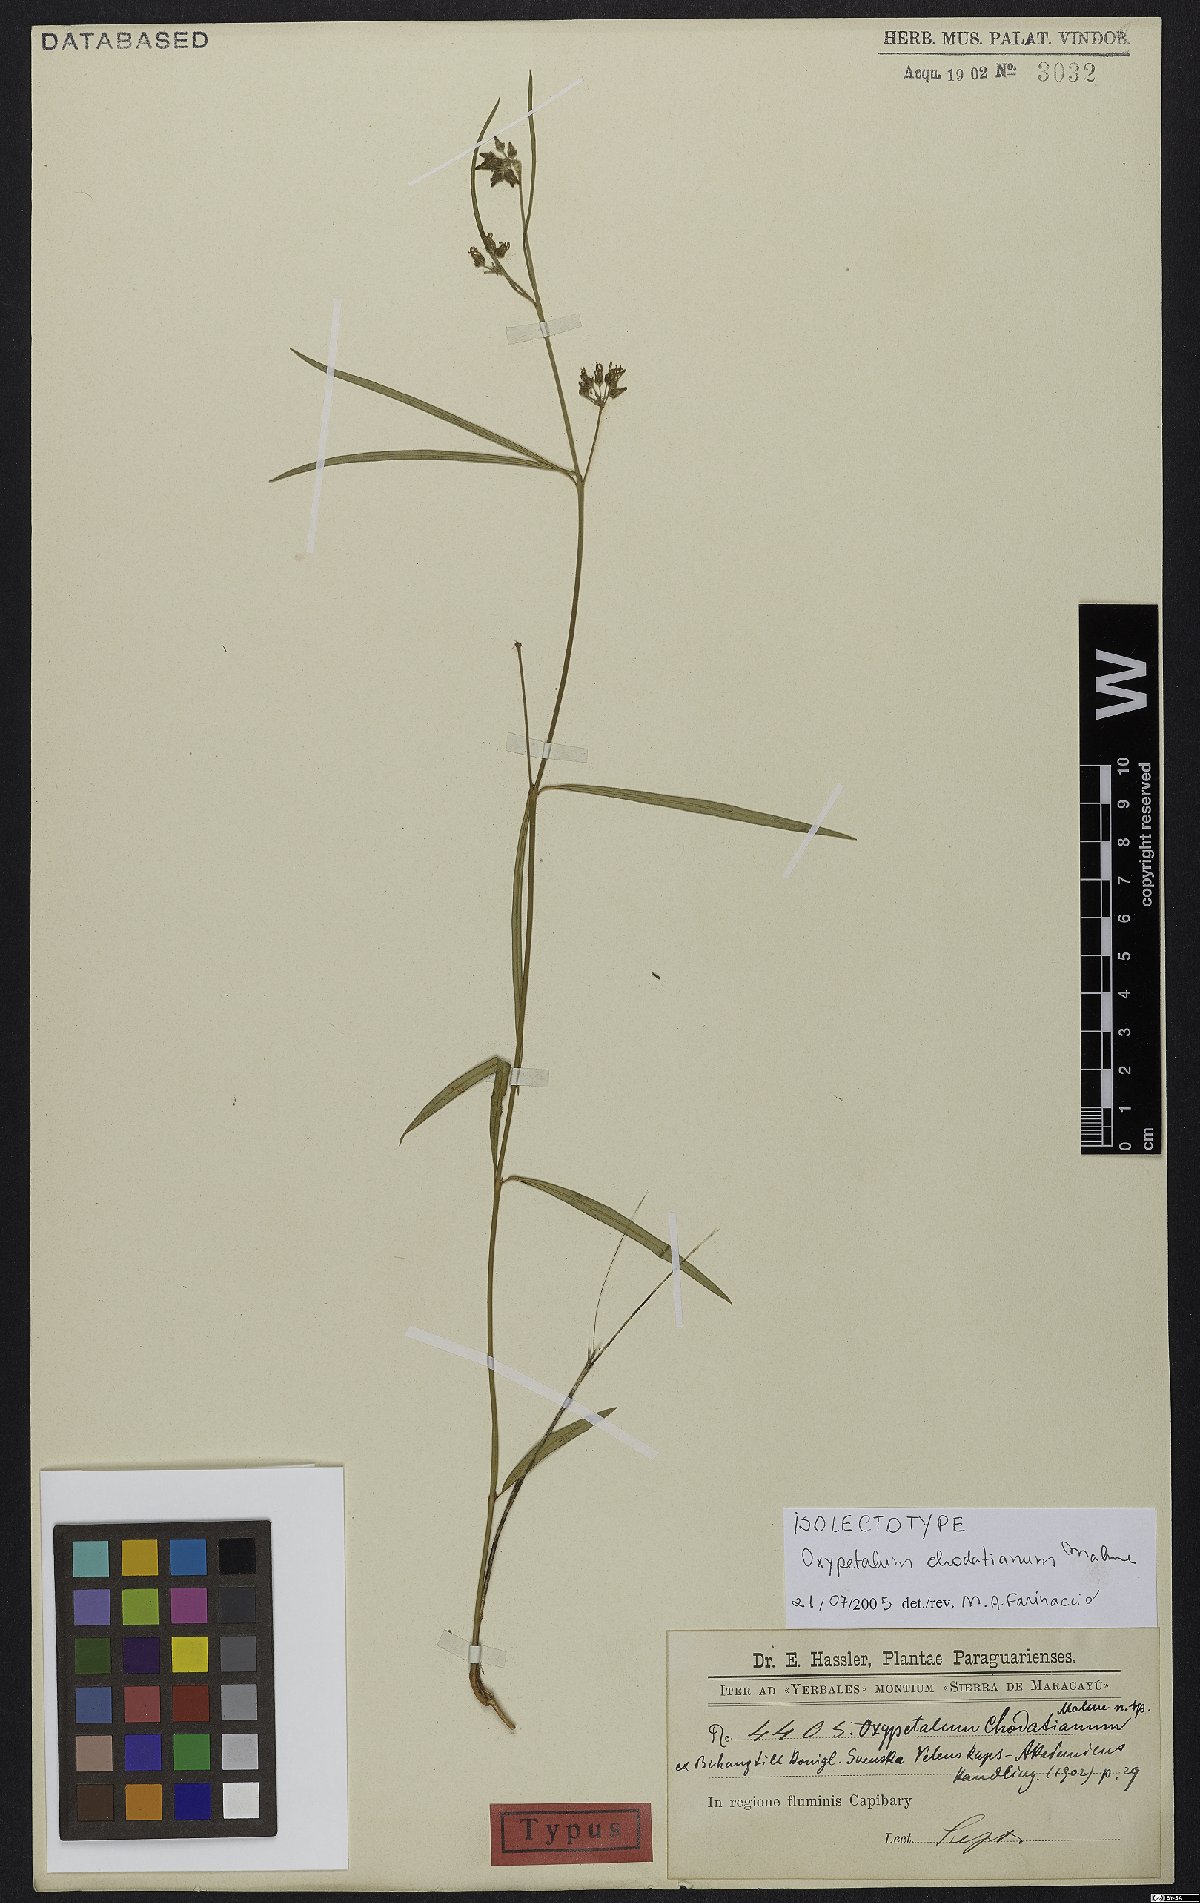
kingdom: Plantae
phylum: Tracheophyta
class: Magnoliopsida
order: Gentianales
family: Apocynaceae
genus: Oxypetalum
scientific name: Oxypetalum chodatianum
